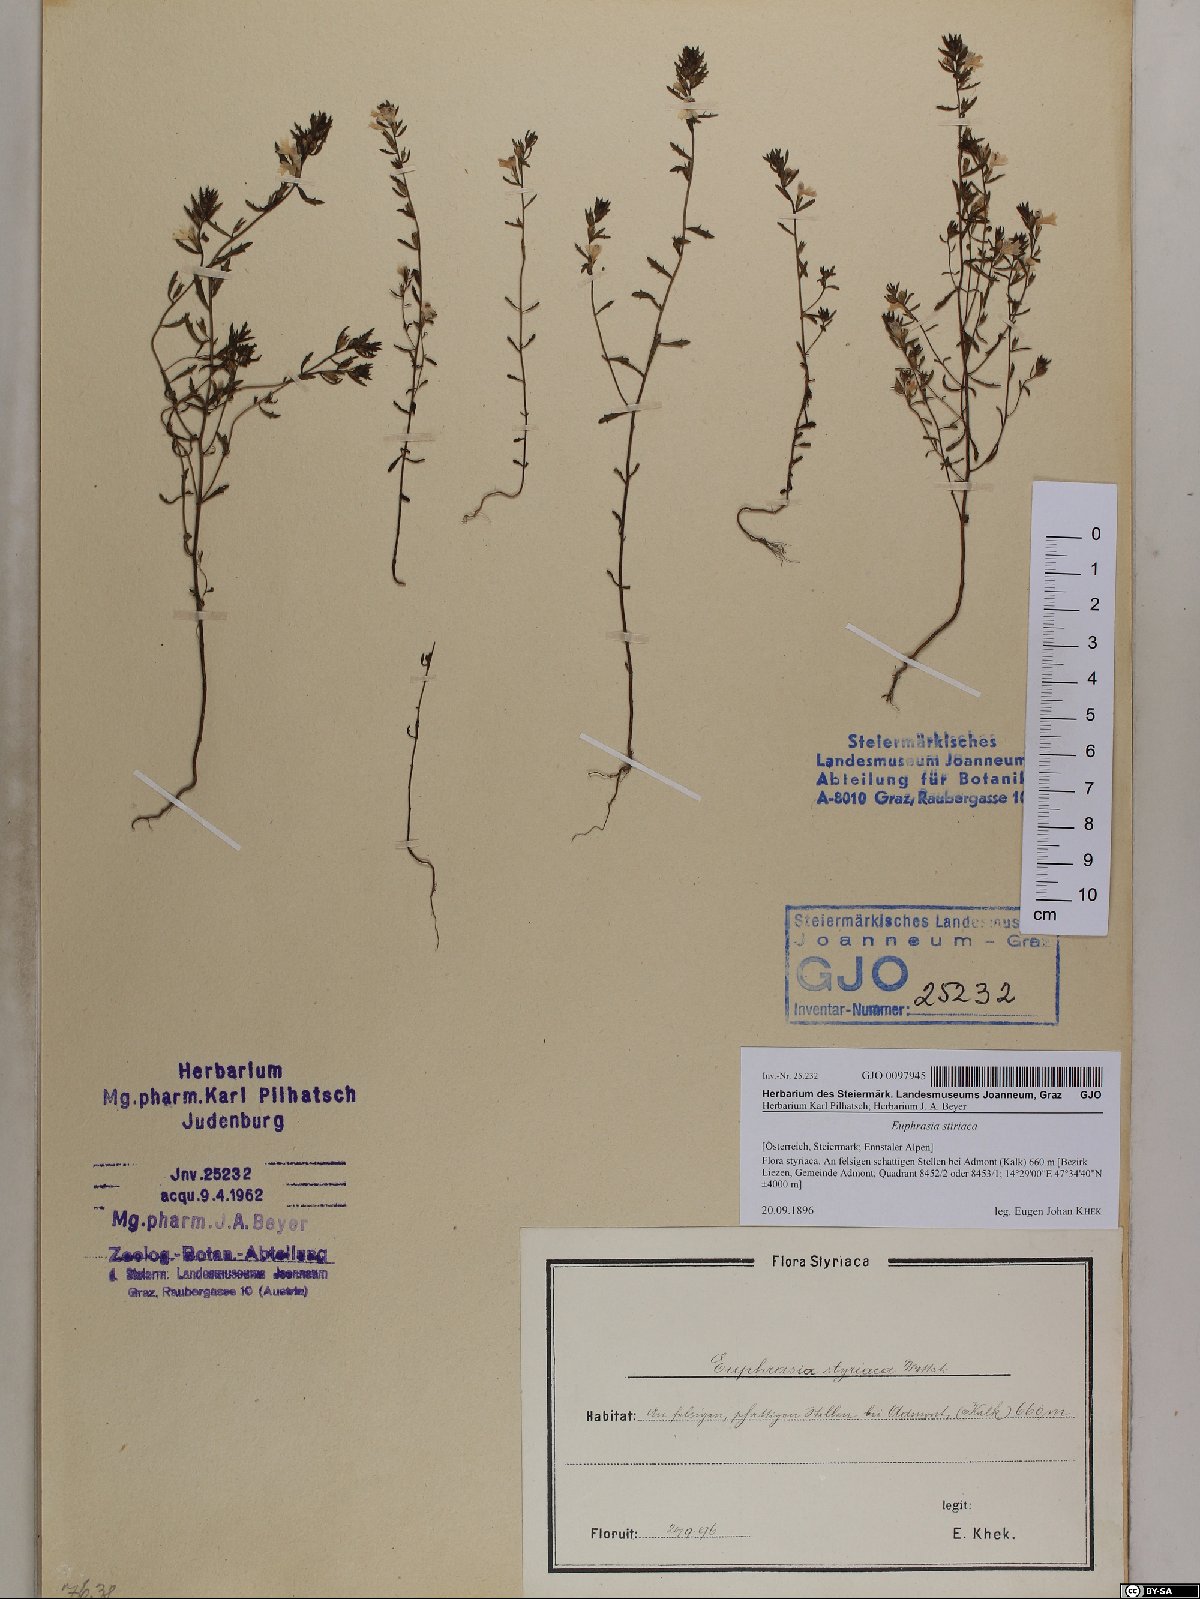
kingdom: Plantae
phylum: Tracheophyta
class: Magnoliopsida
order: Lamiales
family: Orobanchaceae
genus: Euphrasia
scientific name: Euphrasia cuspidata
